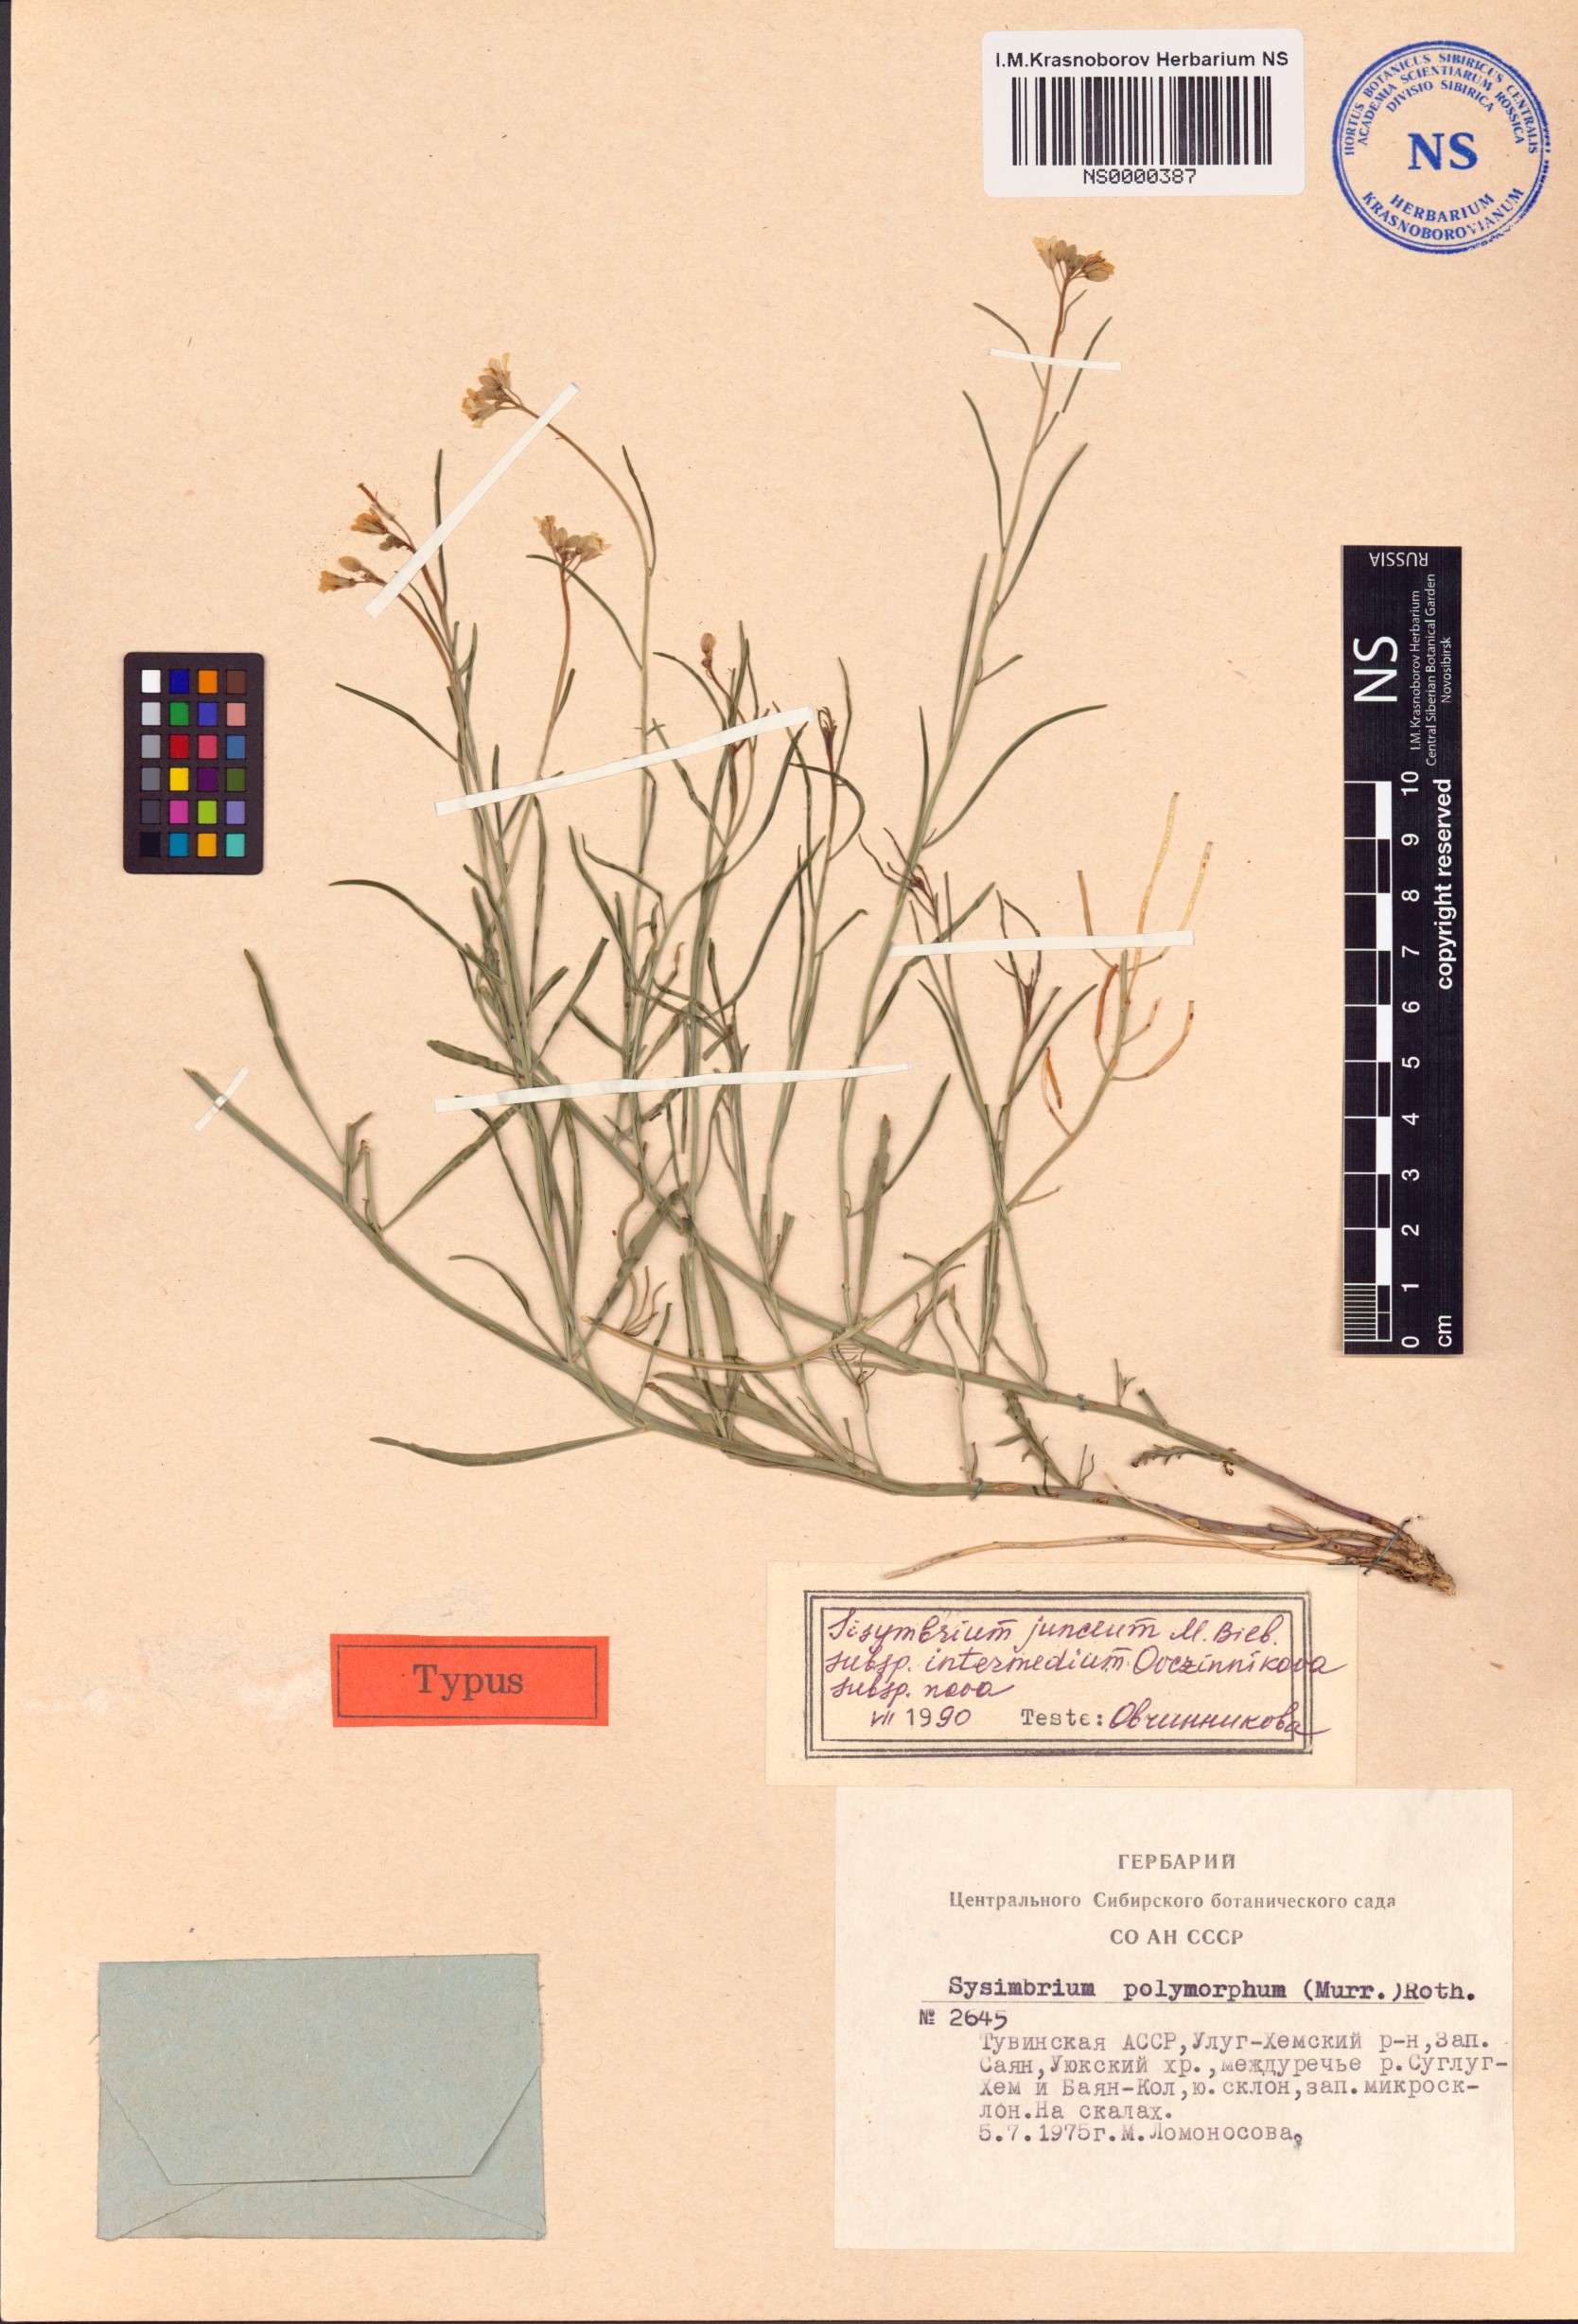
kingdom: Plantae
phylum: Tracheophyta
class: Magnoliopsida
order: Brassicales
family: Brassicaceae
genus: Sisymbrium
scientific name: Sisymbrium polymorphum
